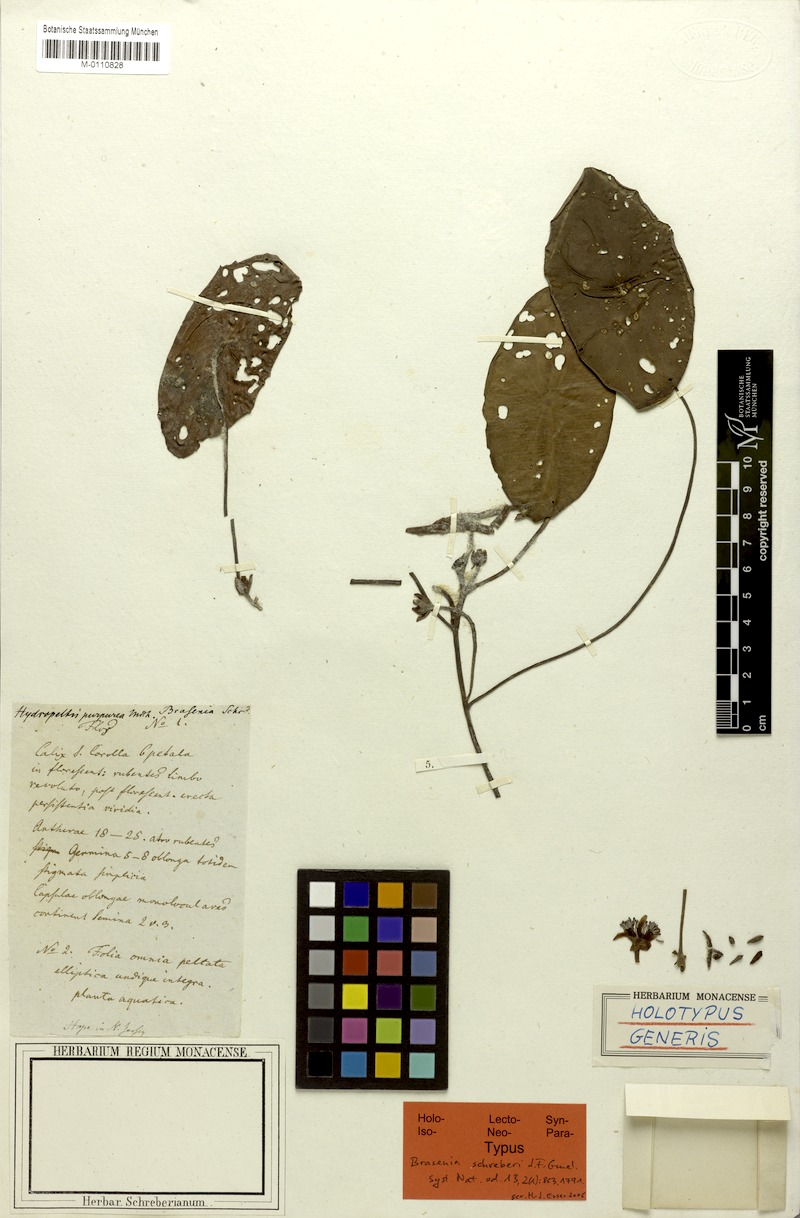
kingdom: Plantae
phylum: Tracheophyta
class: Magnoliopsida
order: Nymphaeales
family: Cabombaceae
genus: Brasenia
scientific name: Brasenia schreberi
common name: Water-shield
